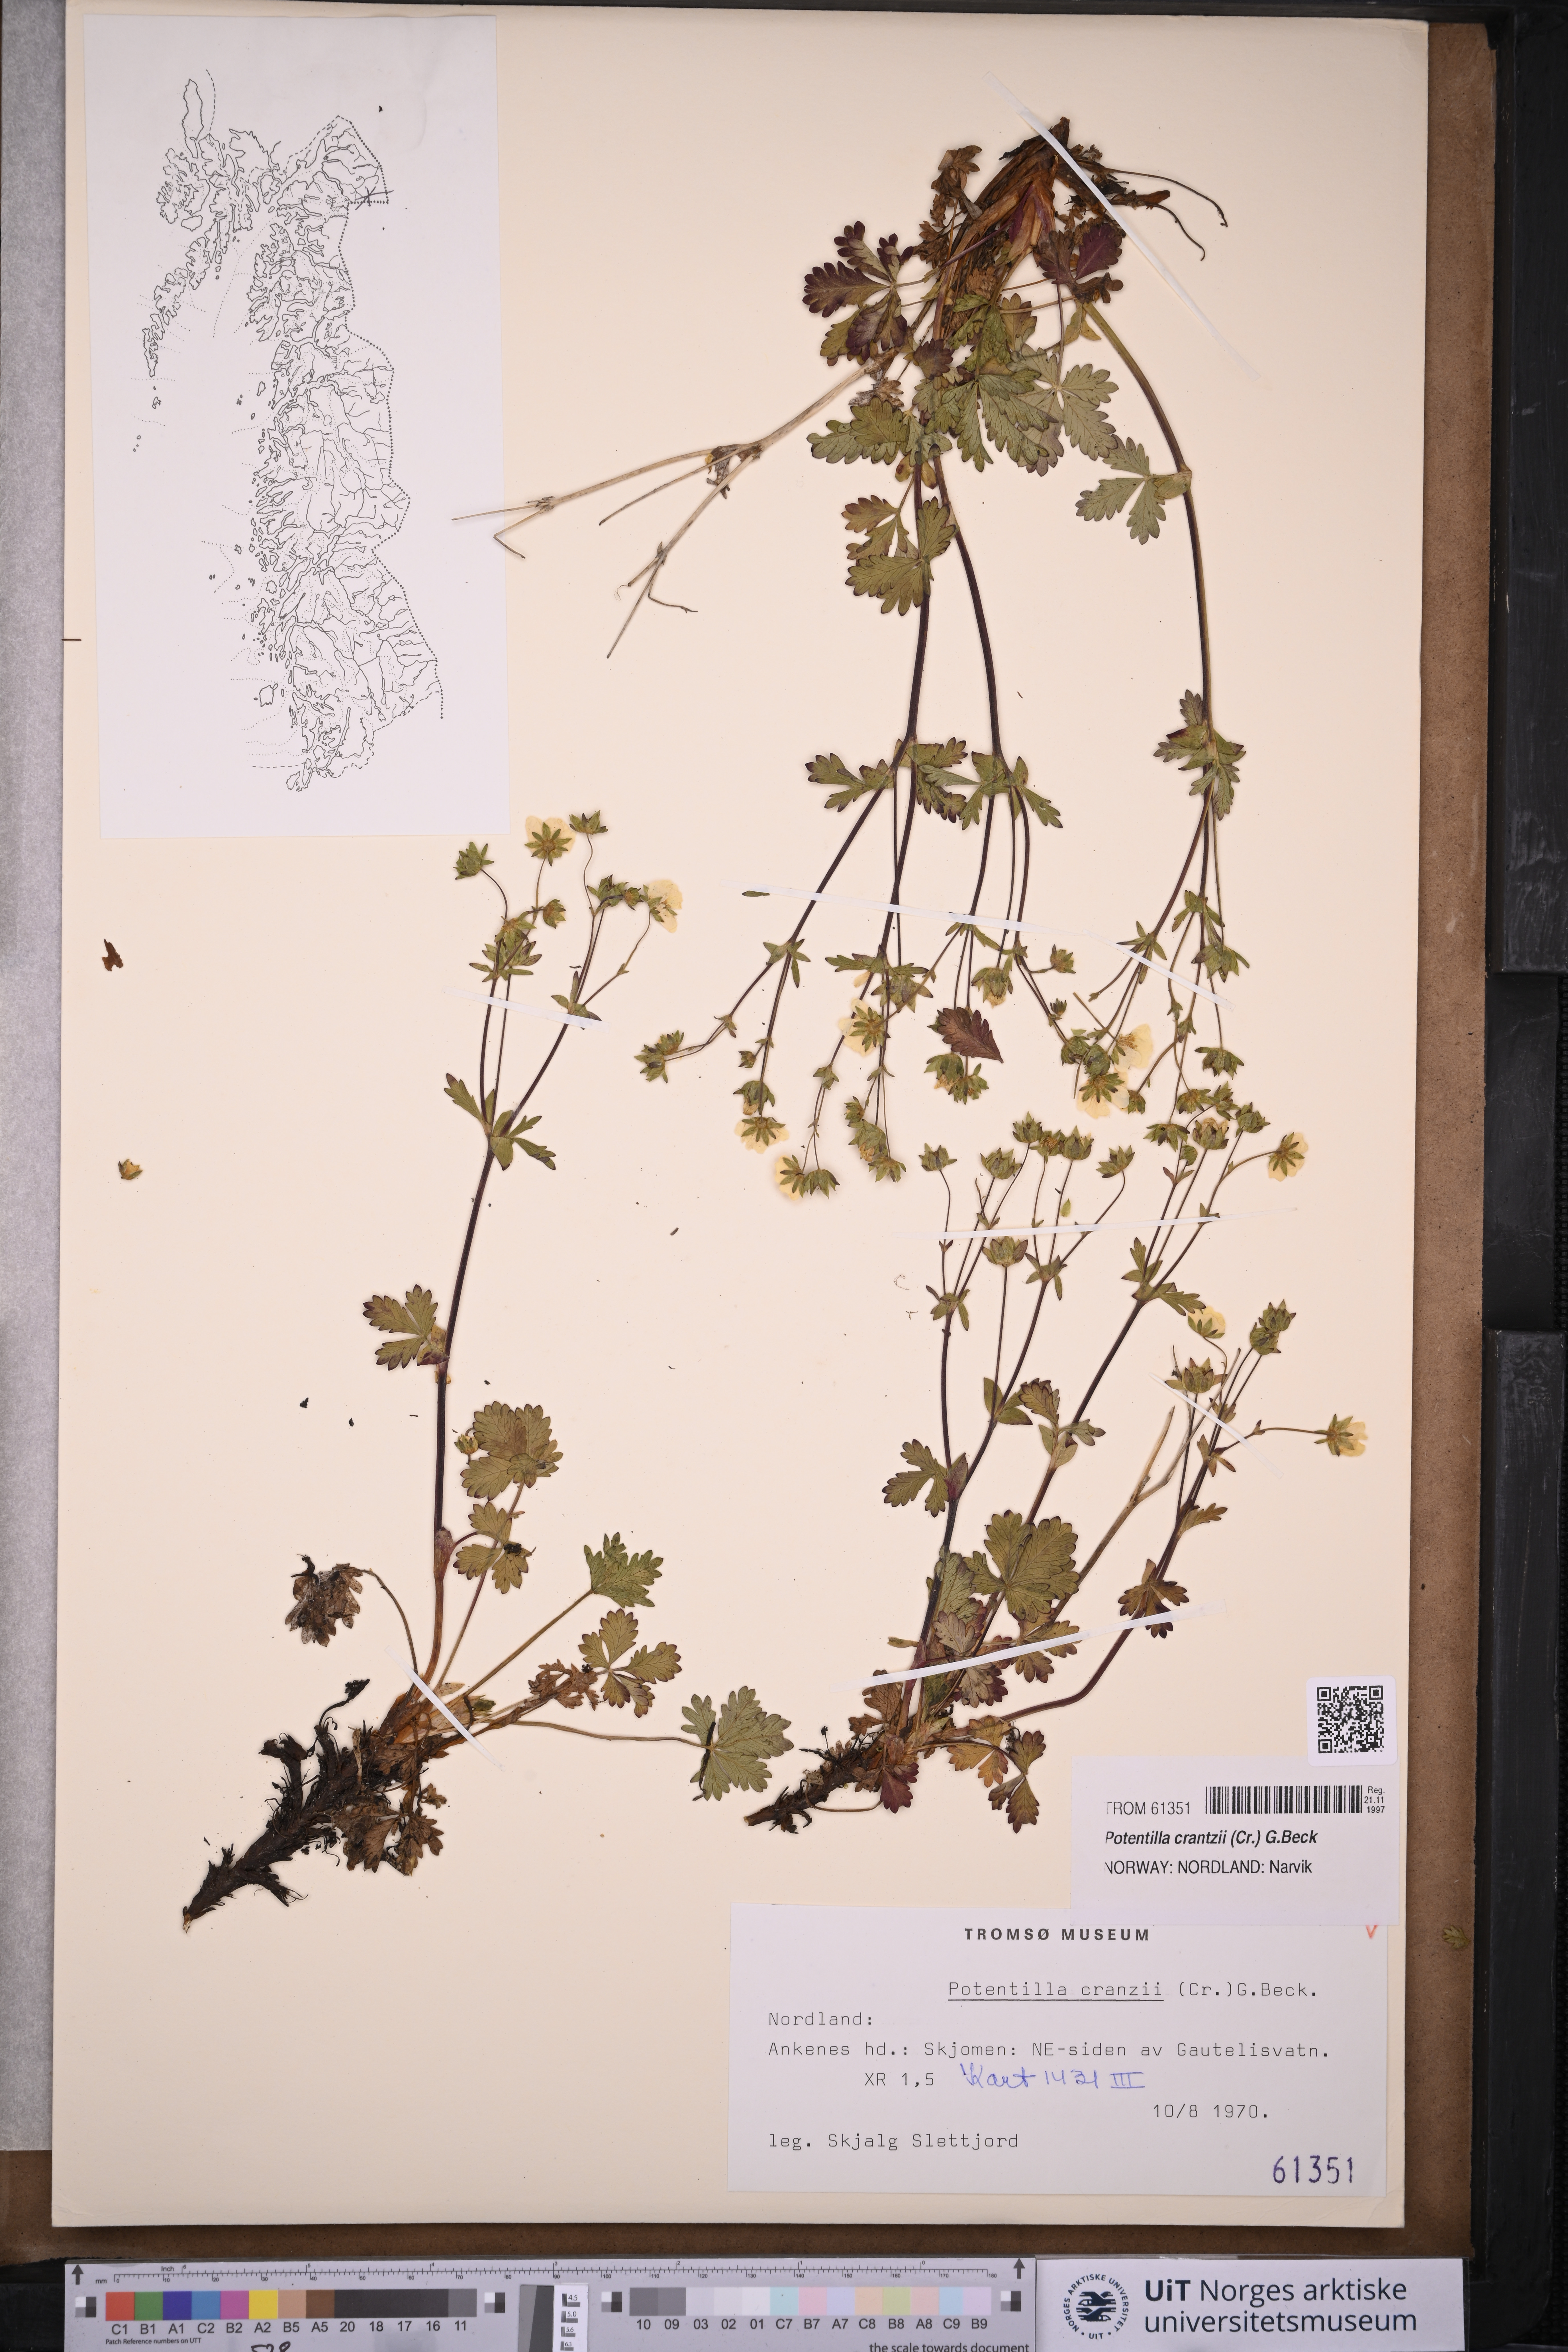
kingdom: Plantae
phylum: Tracheophyta
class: Magnoliopsida
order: Rosales
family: Rosaceae
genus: Potentilla
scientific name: Potentilla crantzii
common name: Alpine cinquefoil
